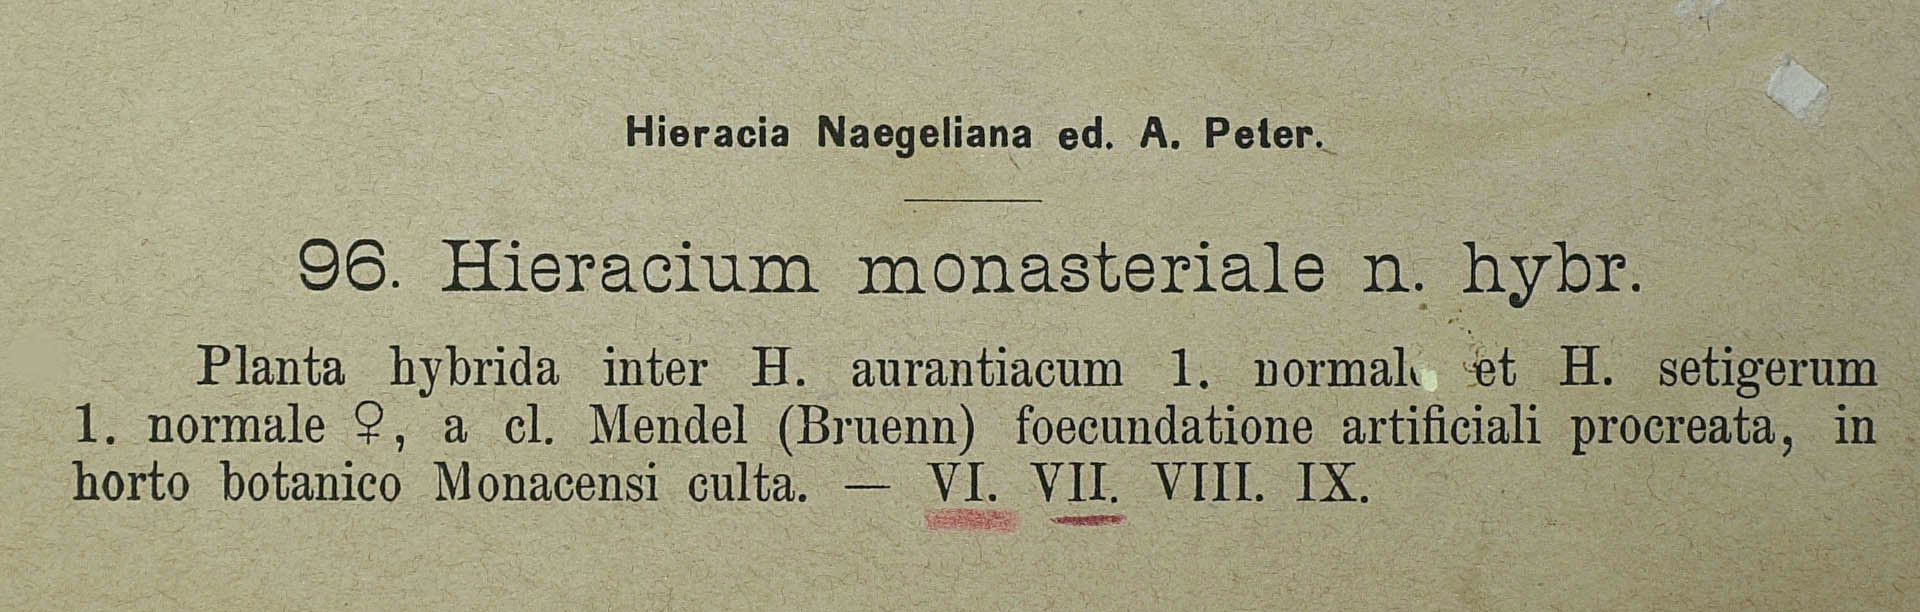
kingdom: Plantae
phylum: Tracheophyta
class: Magnoliopsida
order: Asterales
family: Asteraceae
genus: Hieracium
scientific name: Hieracium monasteriale
